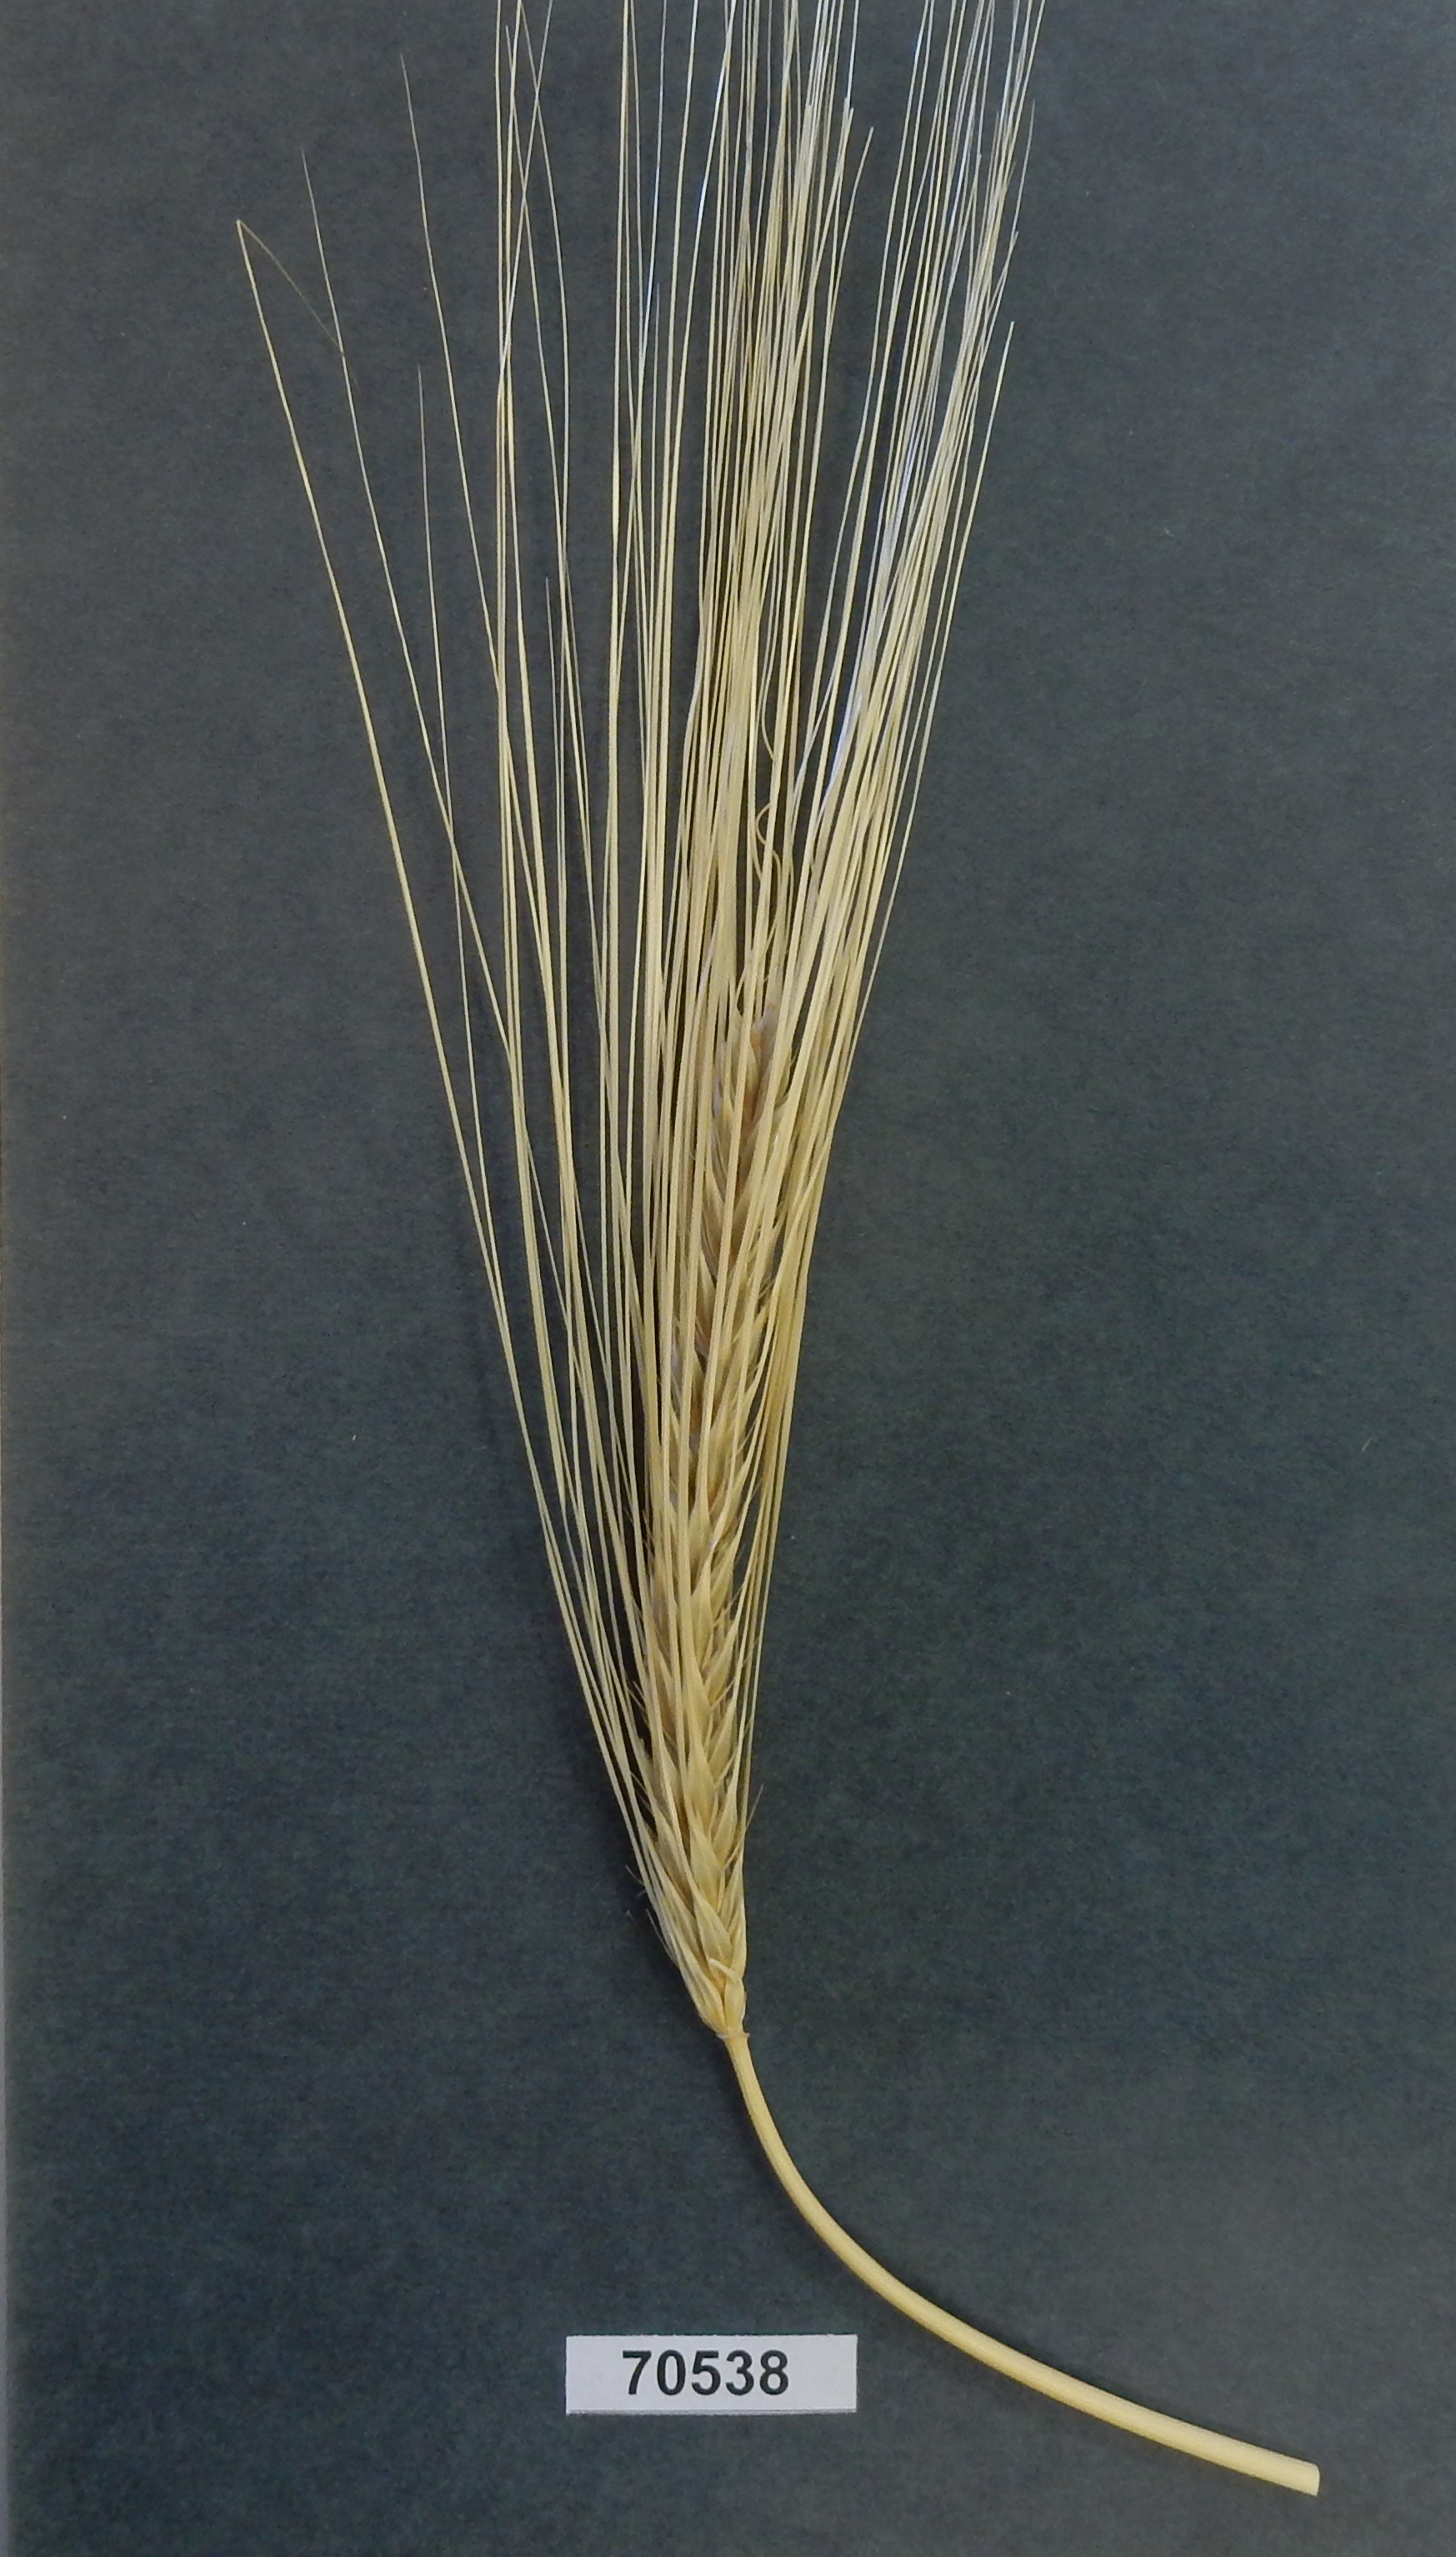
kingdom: Plantae
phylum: Tracheophyta
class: Liliopsida
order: Poales
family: Poaceae
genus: Hordeum
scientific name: Hordeum
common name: Barley
